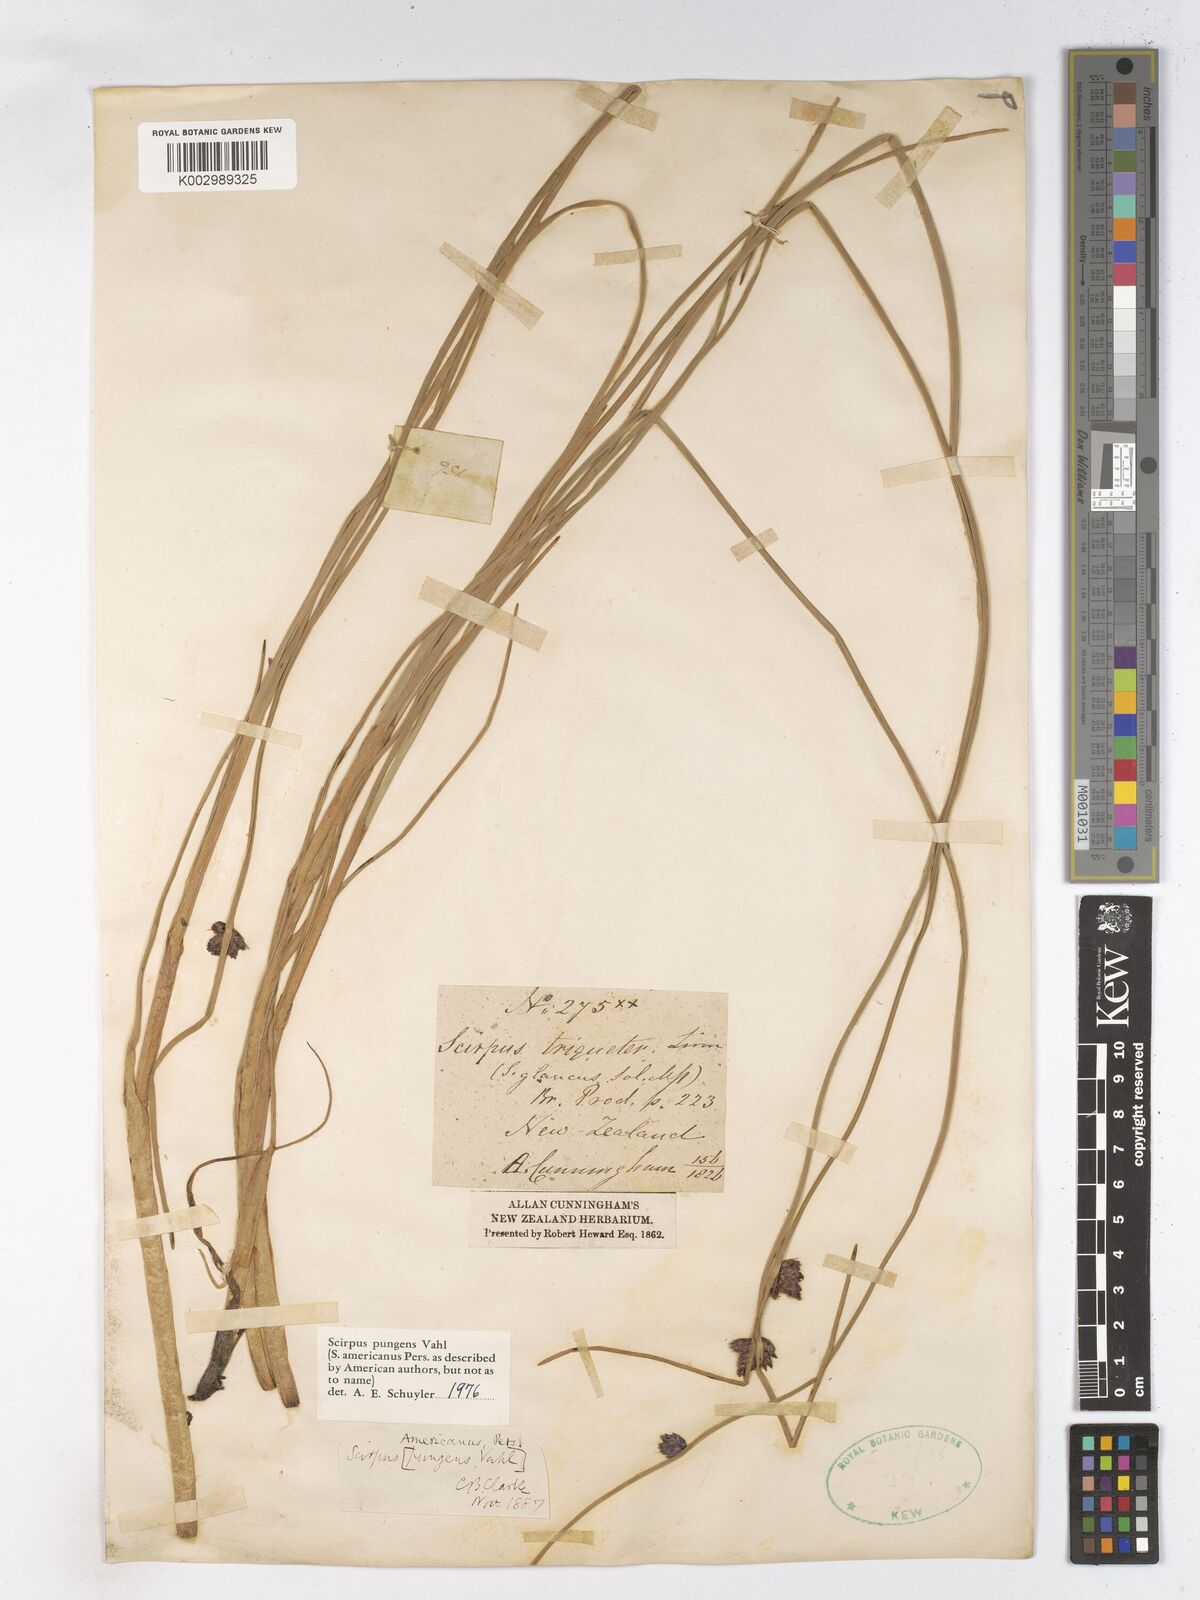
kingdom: Plantae
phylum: Tracheophyta
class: Liliopsida
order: Poales
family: Cyperaceae
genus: Schoenoplectus
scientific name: Schoenoplectus pungens
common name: Sharp club-rush
